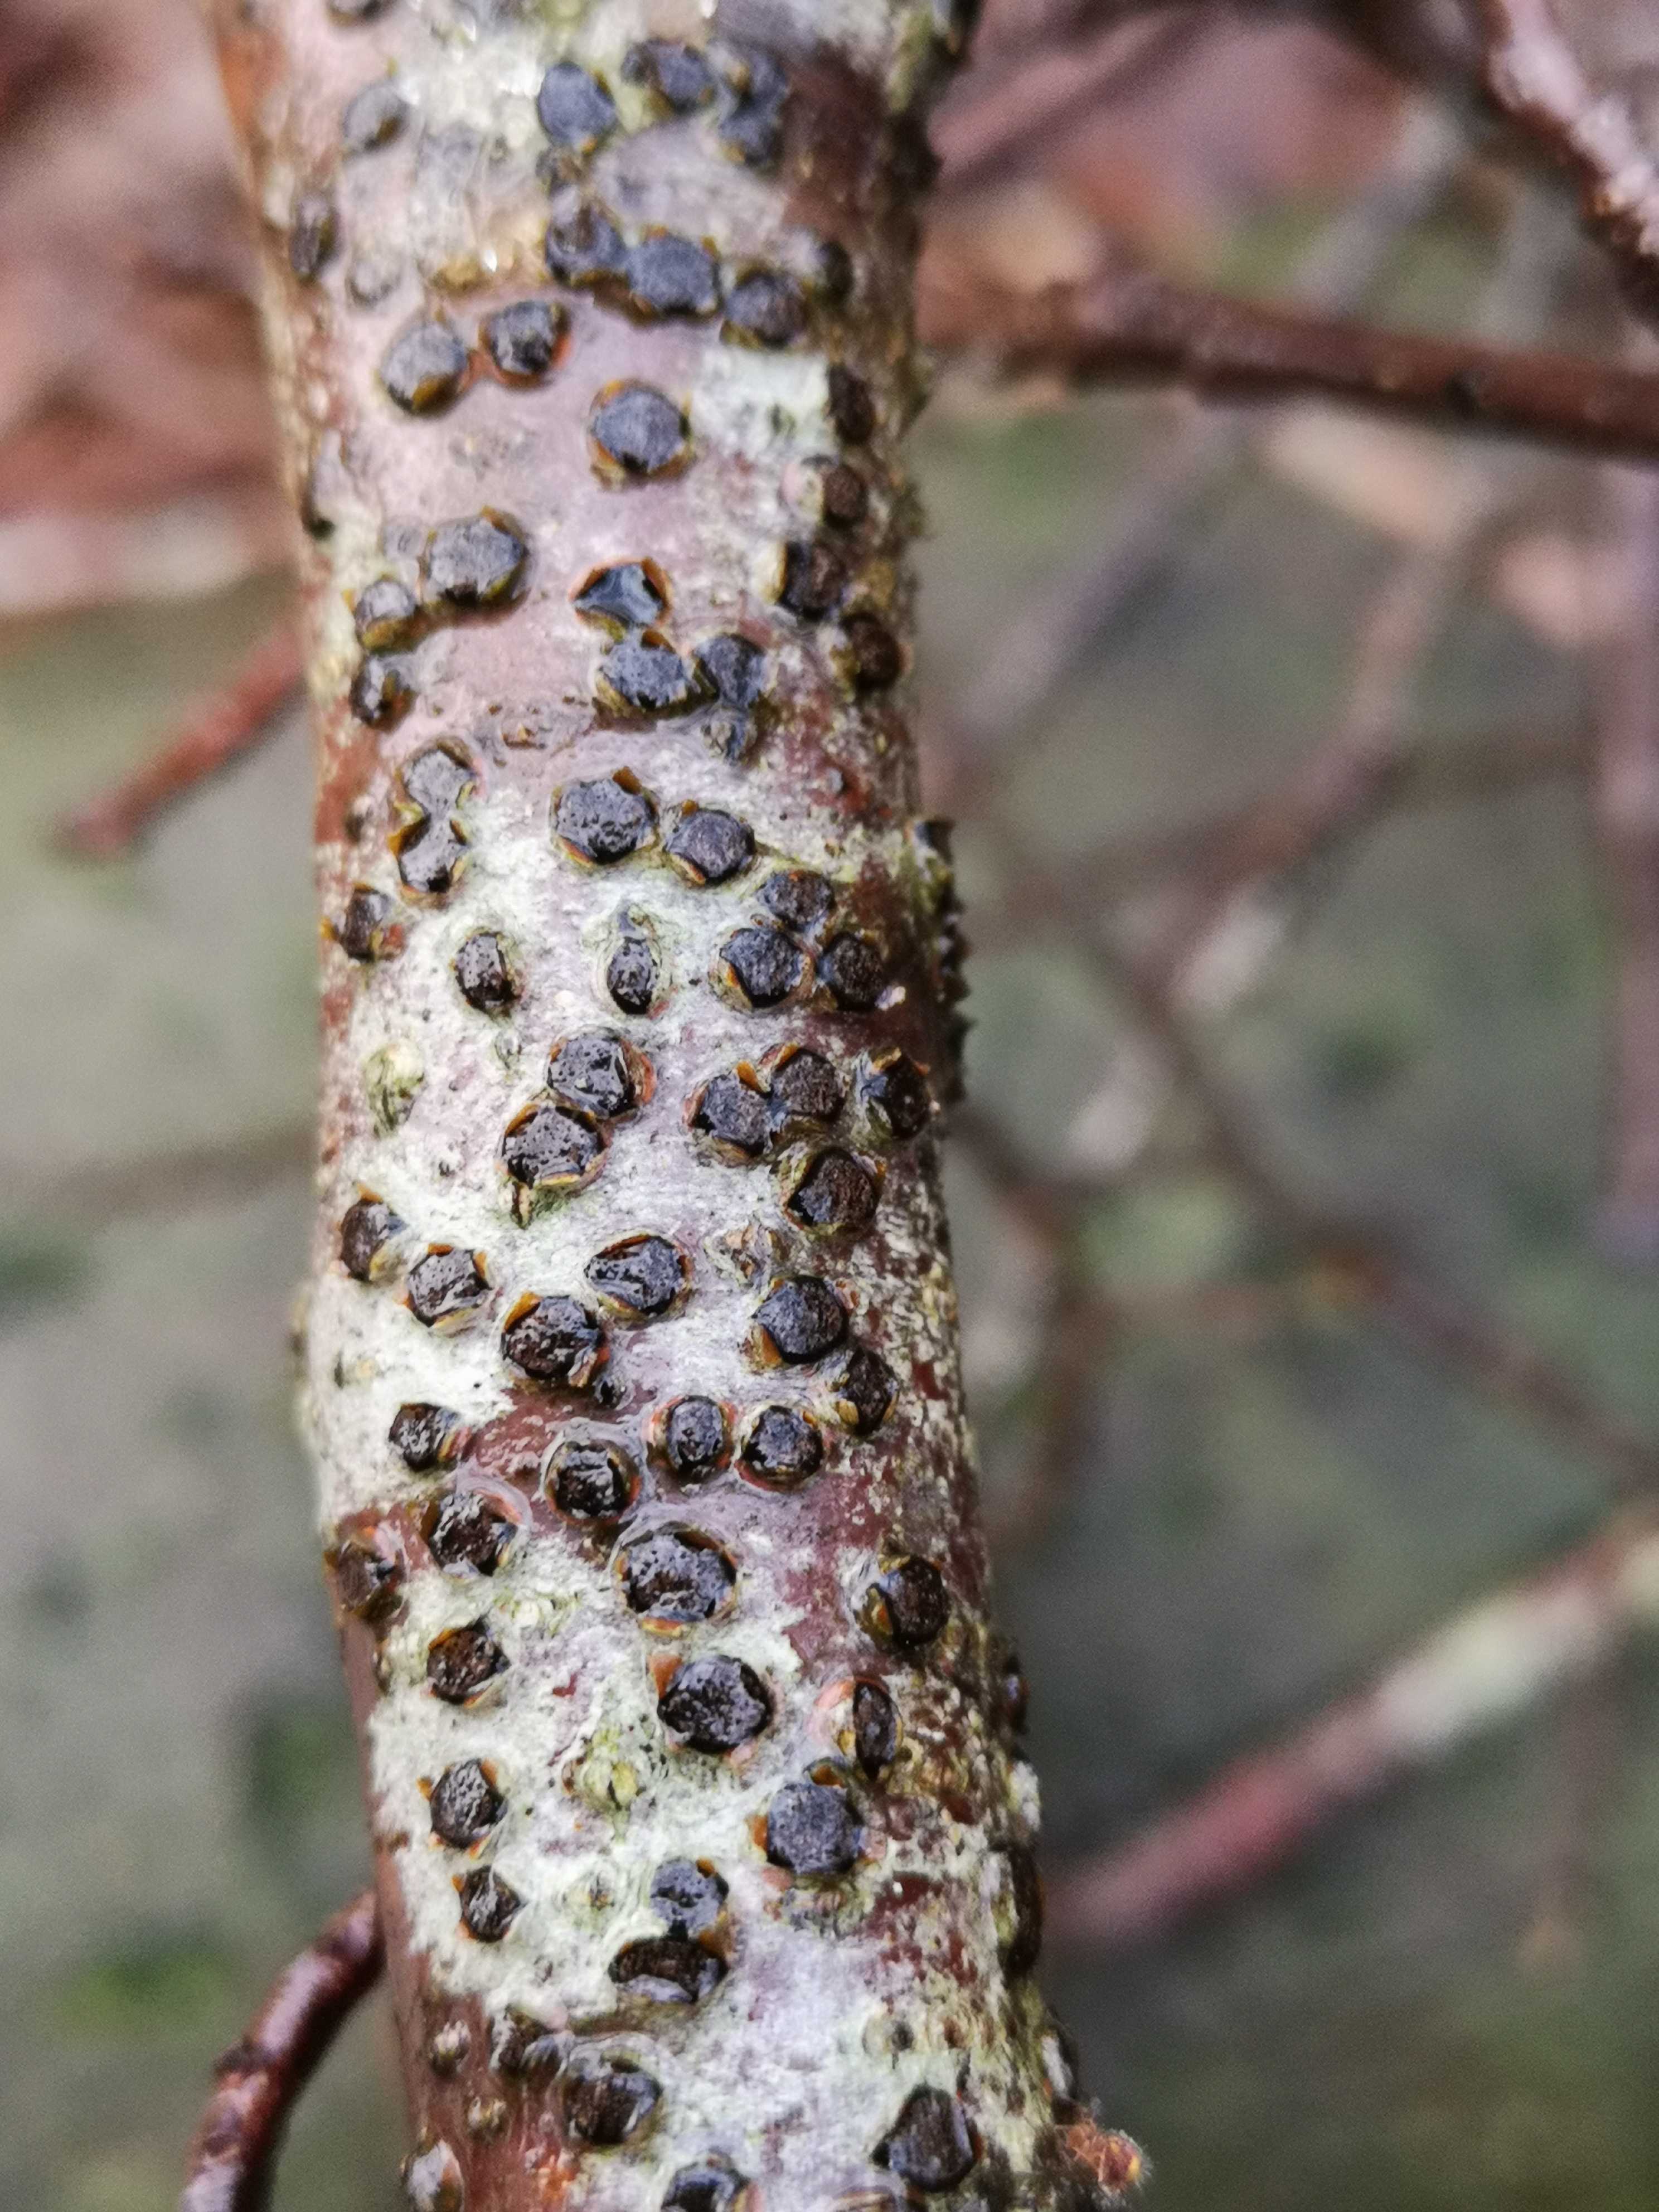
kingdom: Fungi
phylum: Ascomycota
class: Sordariomycetes
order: Xylariales
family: Diatrypaceae
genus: Diatrype
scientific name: Diatrype disciformis
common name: kant-kulskorpe
